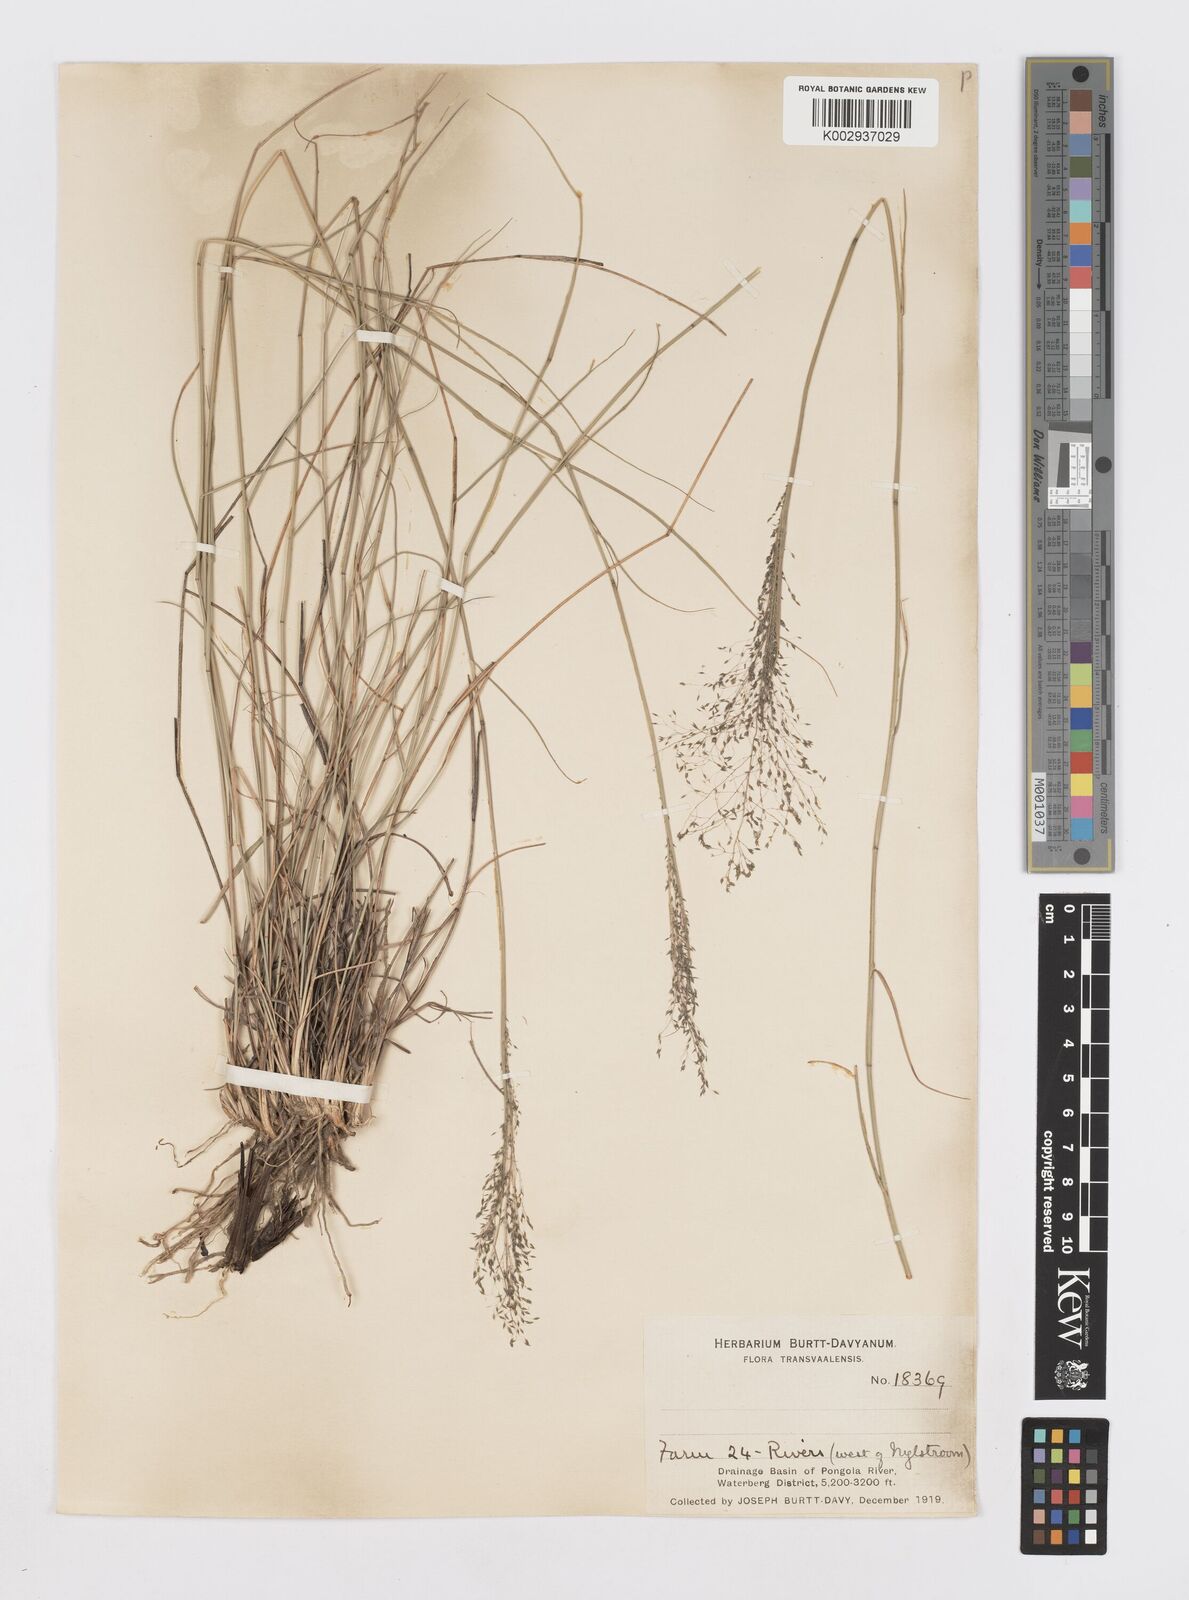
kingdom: Plantae
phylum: Tracheophyta
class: Liliopsida
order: Poales
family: Poaceae
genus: Sporobolus
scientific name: Sporobolus welwitschii
